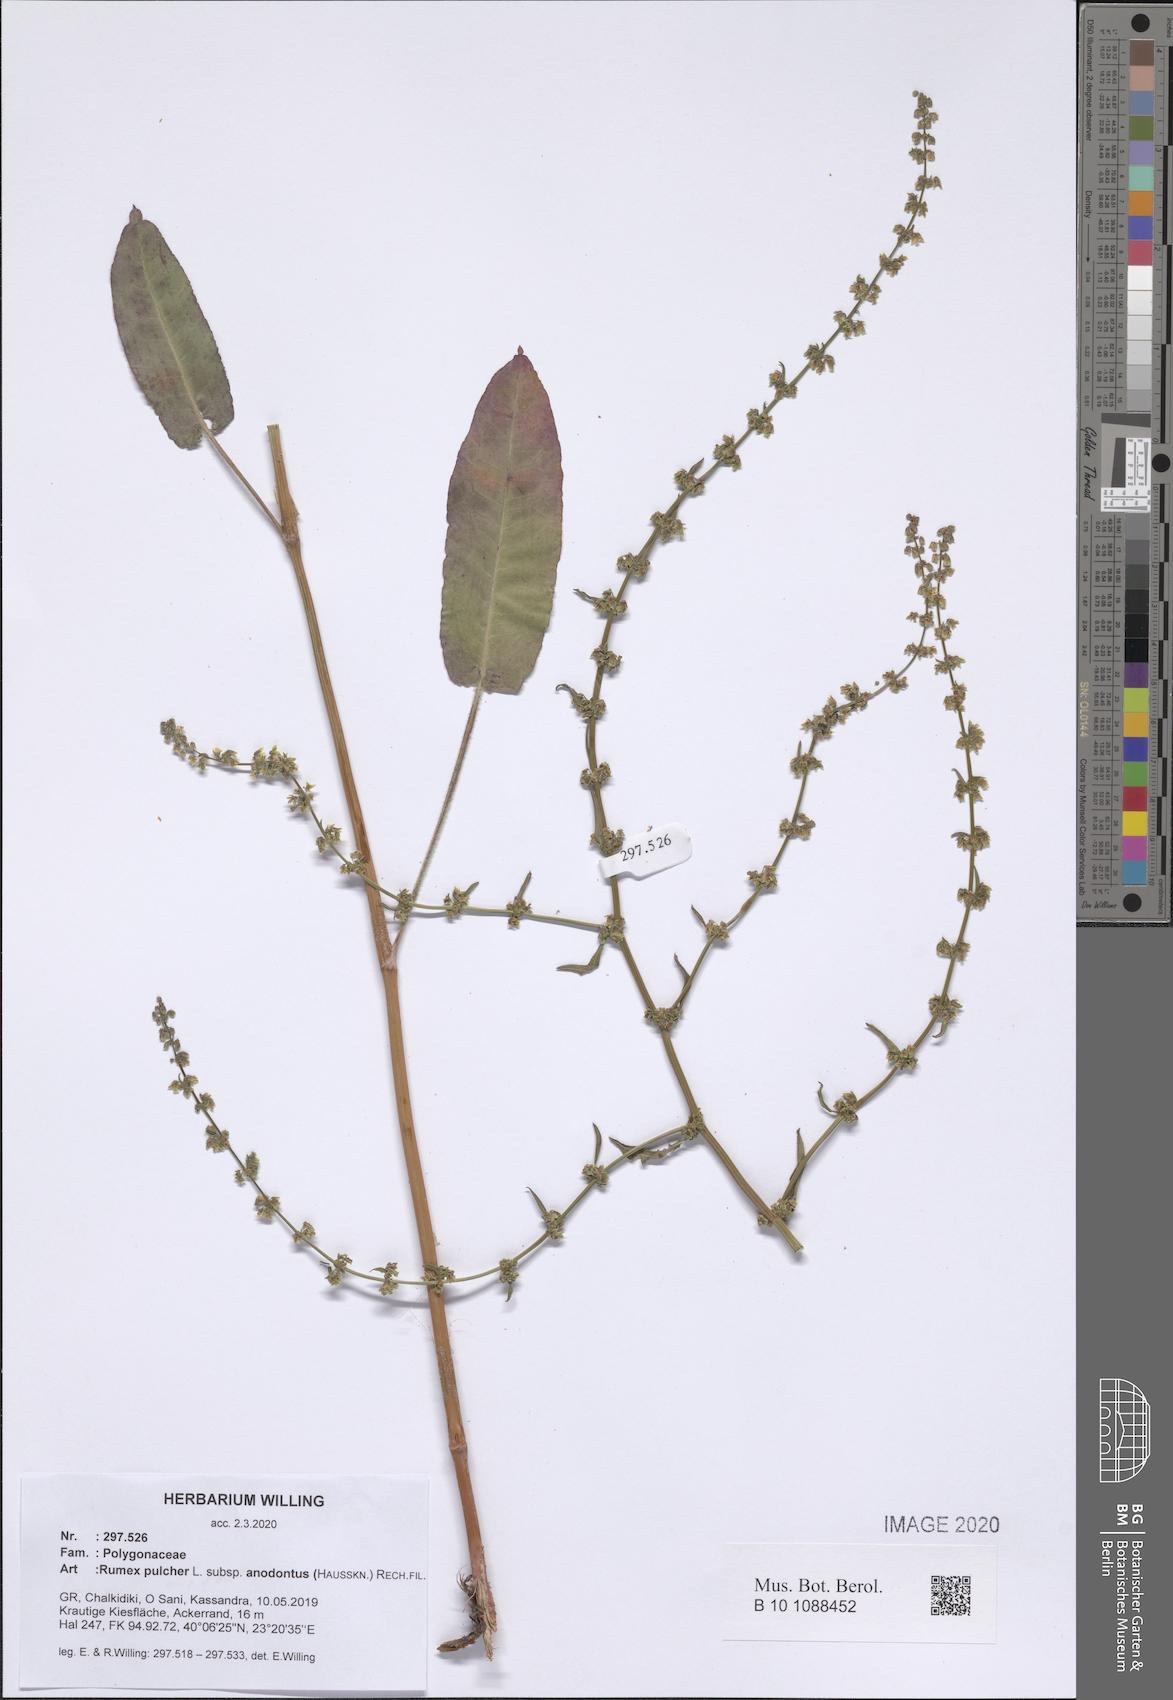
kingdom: Plantae
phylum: Tracheophyta
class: Magnoliopsida
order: Caryophyllales
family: Polygonaceae
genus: Rumex
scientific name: Rumex pulcher
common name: Fiddle dock
